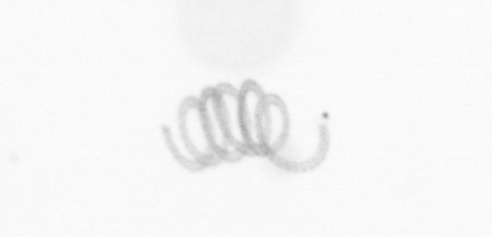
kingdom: Chromista
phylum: Ochrophyta
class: Bacillariophyceae
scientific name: Bacillariophyceae
